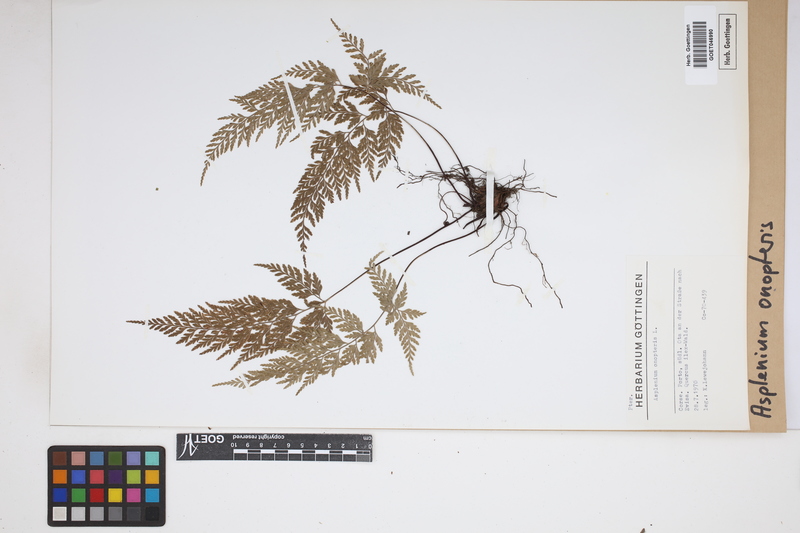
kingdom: Plantae
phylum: Tracheophyta
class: Polypodiopsida
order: Polypodiales
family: Aspleniaceae
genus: Asplenium
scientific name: Asplenium onopteris
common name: Irish spleenwort
